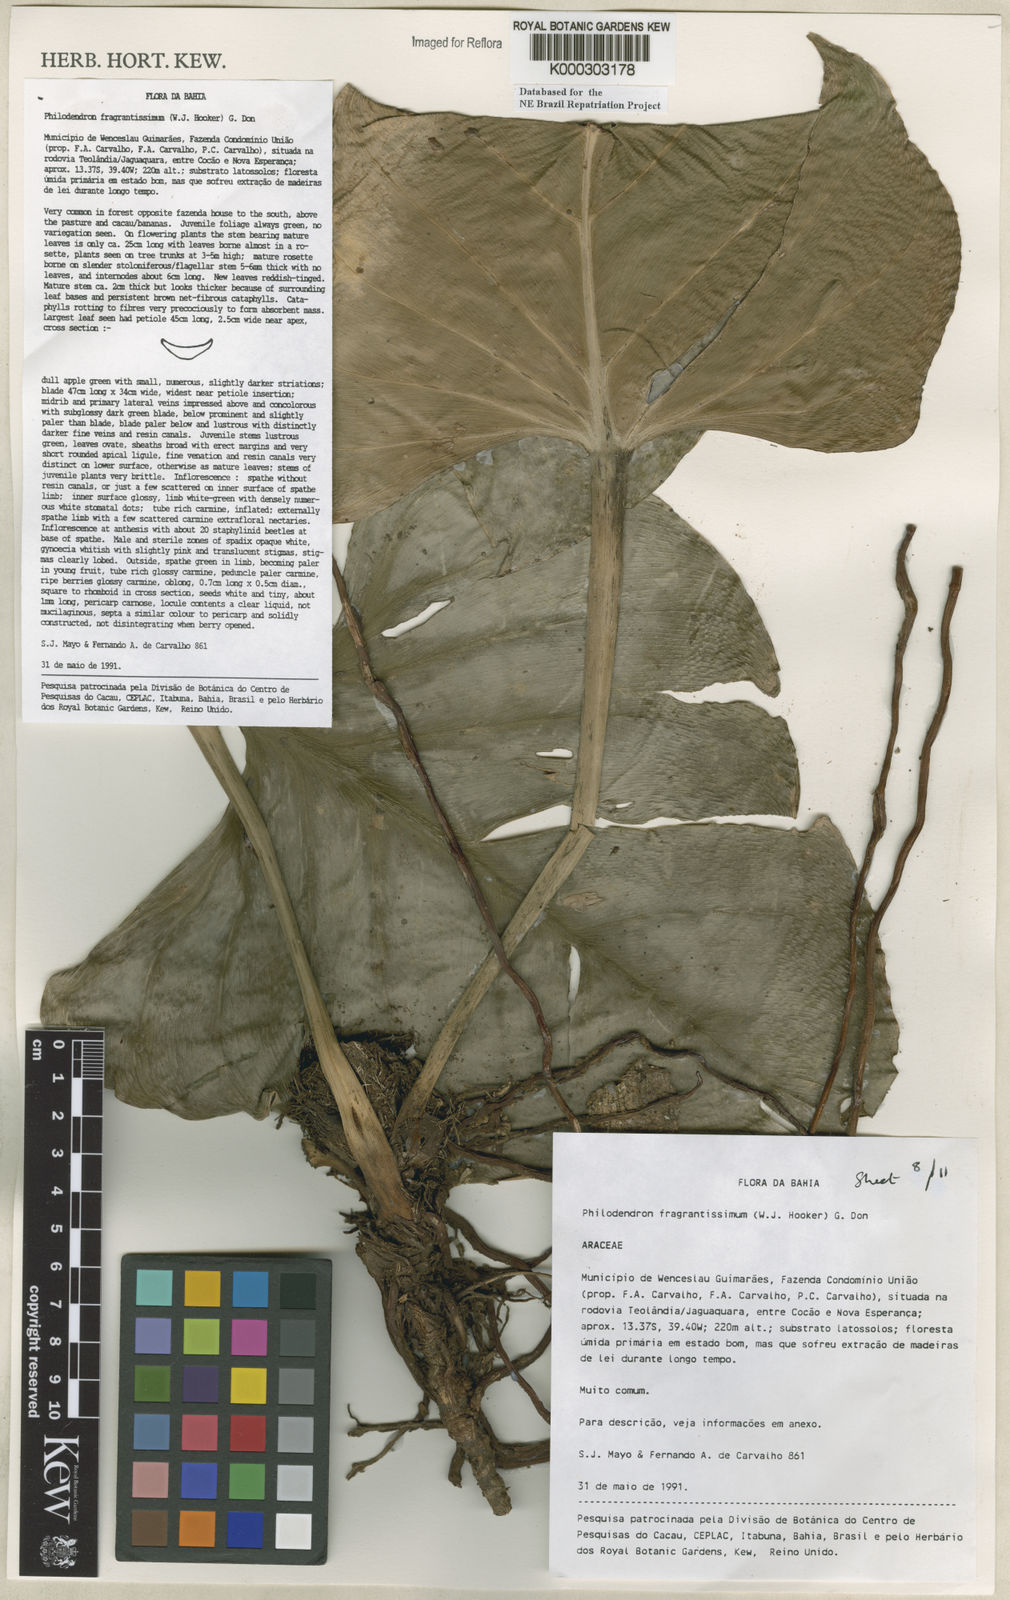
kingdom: Plantae
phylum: Tracheophyta
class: Liliopsida
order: Alismatales
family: Araceae
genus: Philodendron
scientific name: Philodendron fragrantissimum
